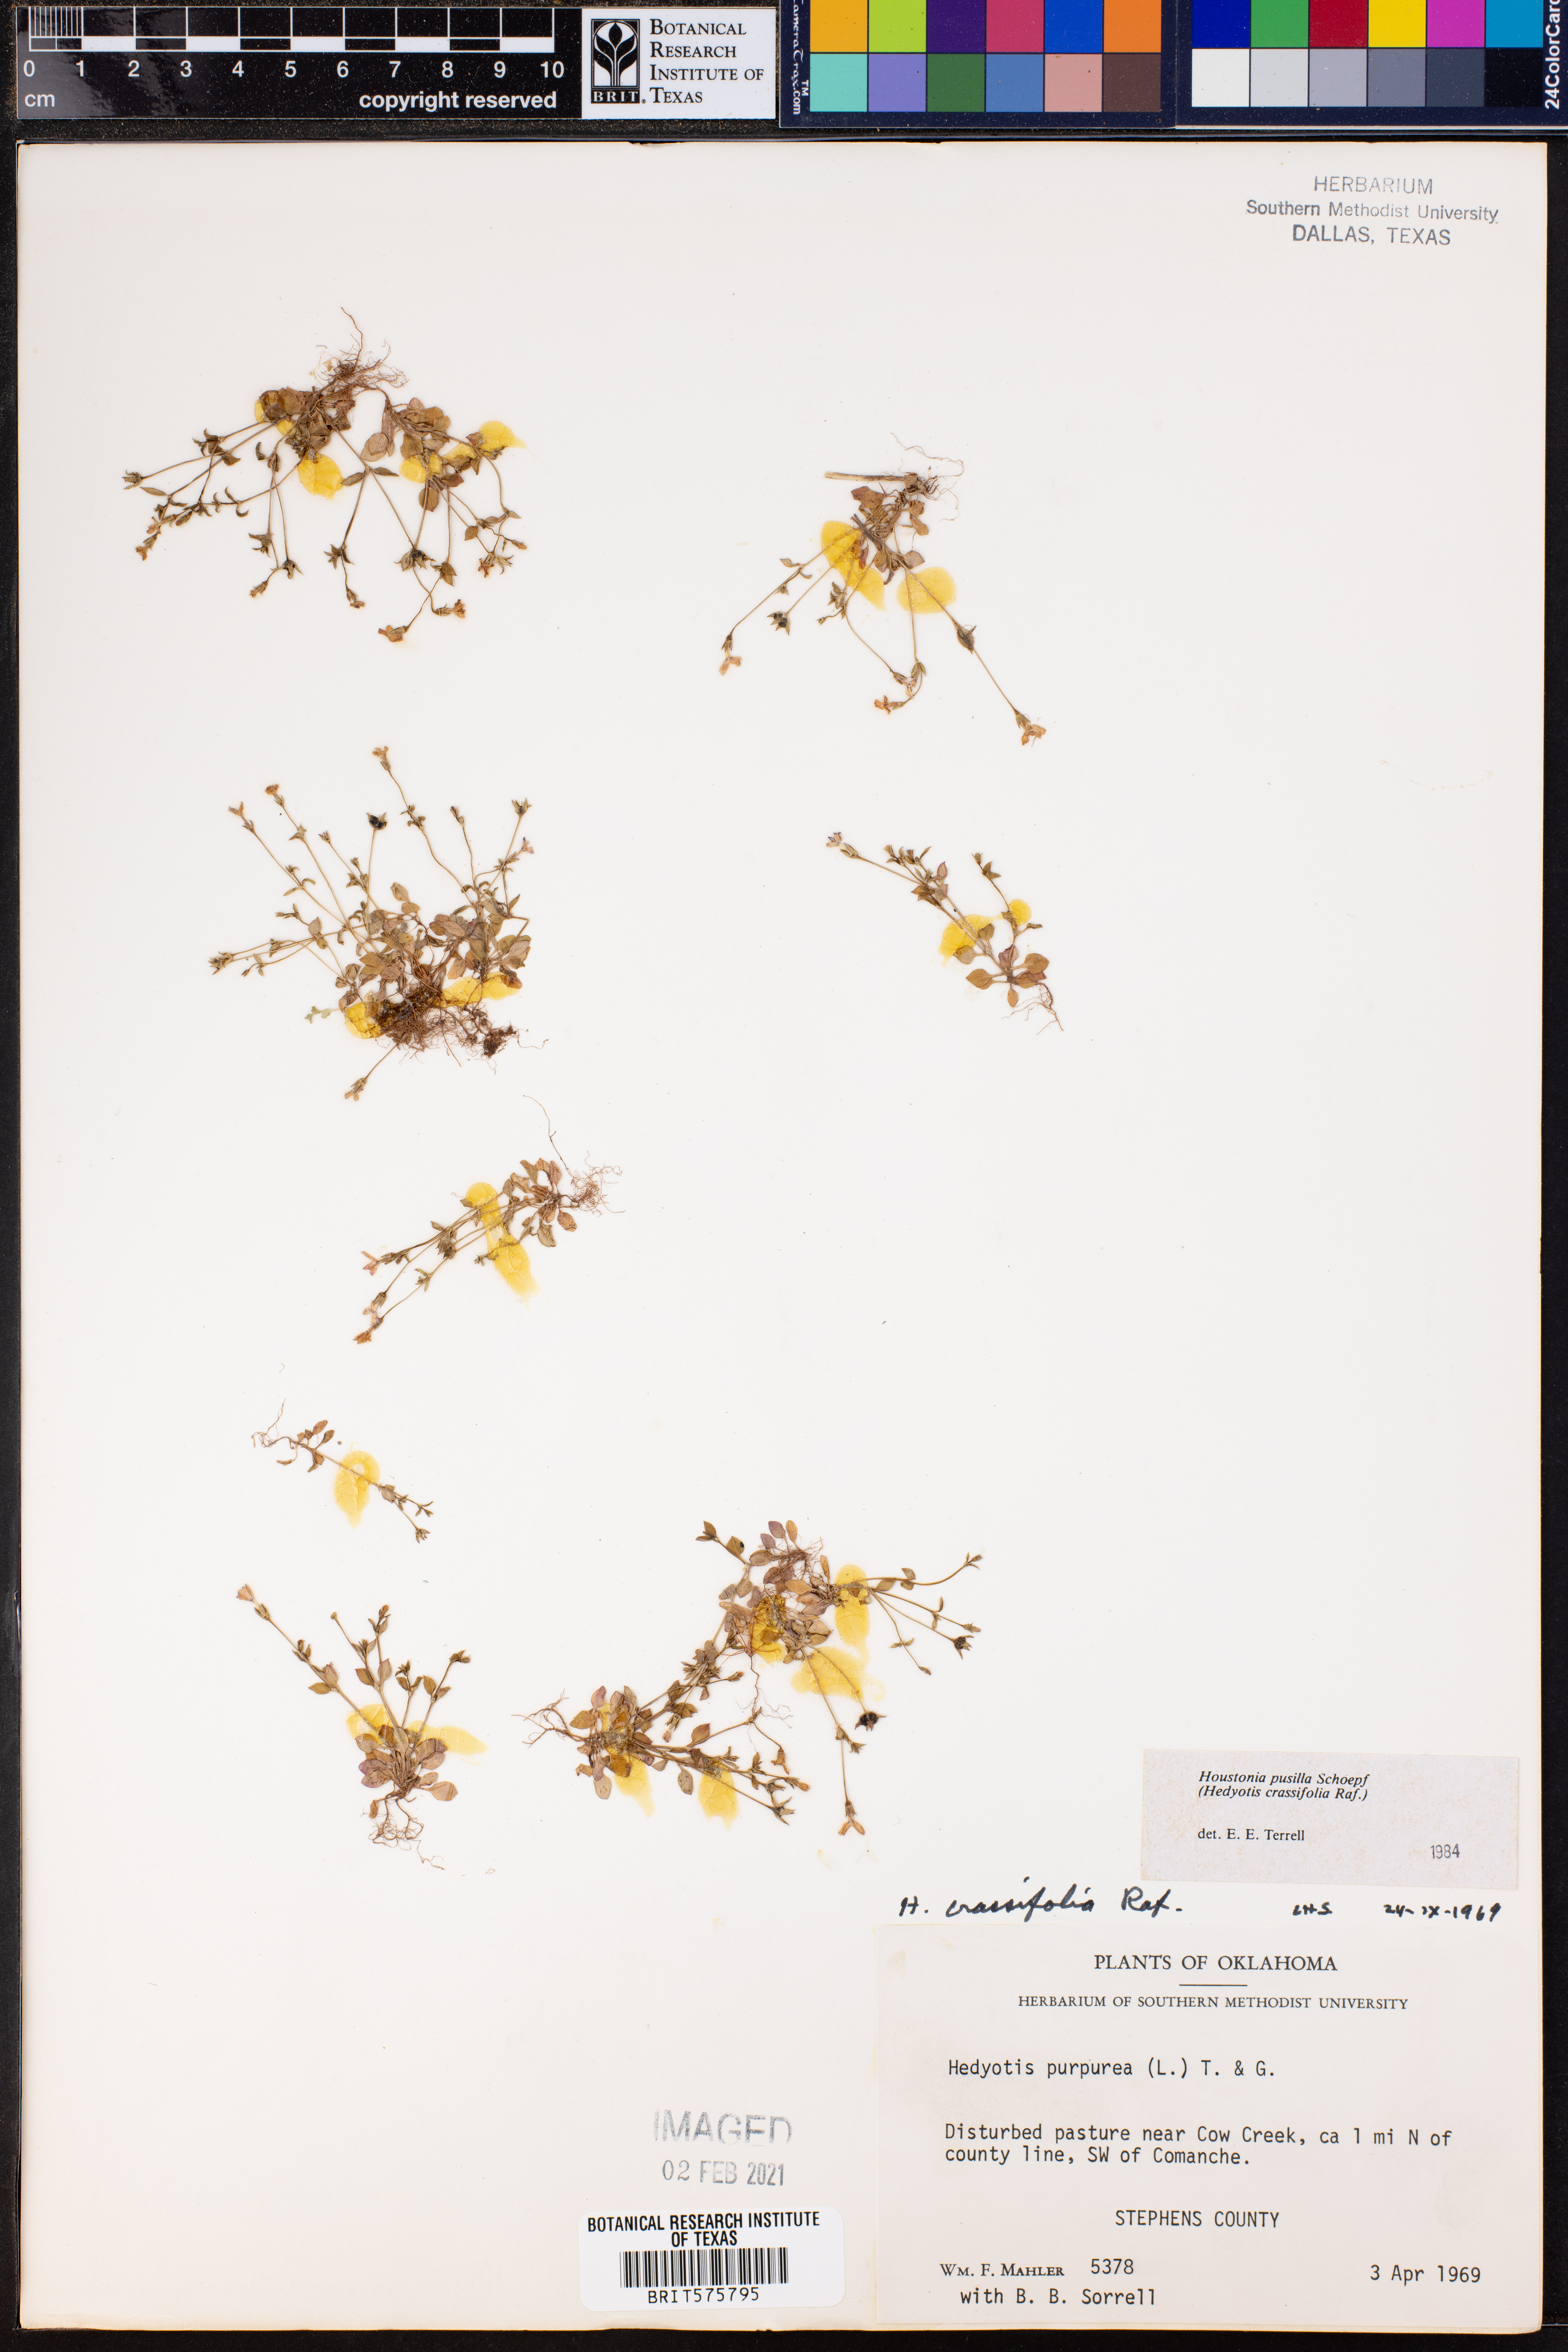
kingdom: Plantae
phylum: Tracheophyta
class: Magnoliopsida
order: Gentianales
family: Rubiaceae
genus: Houstonia
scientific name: Houstonia pusilla
